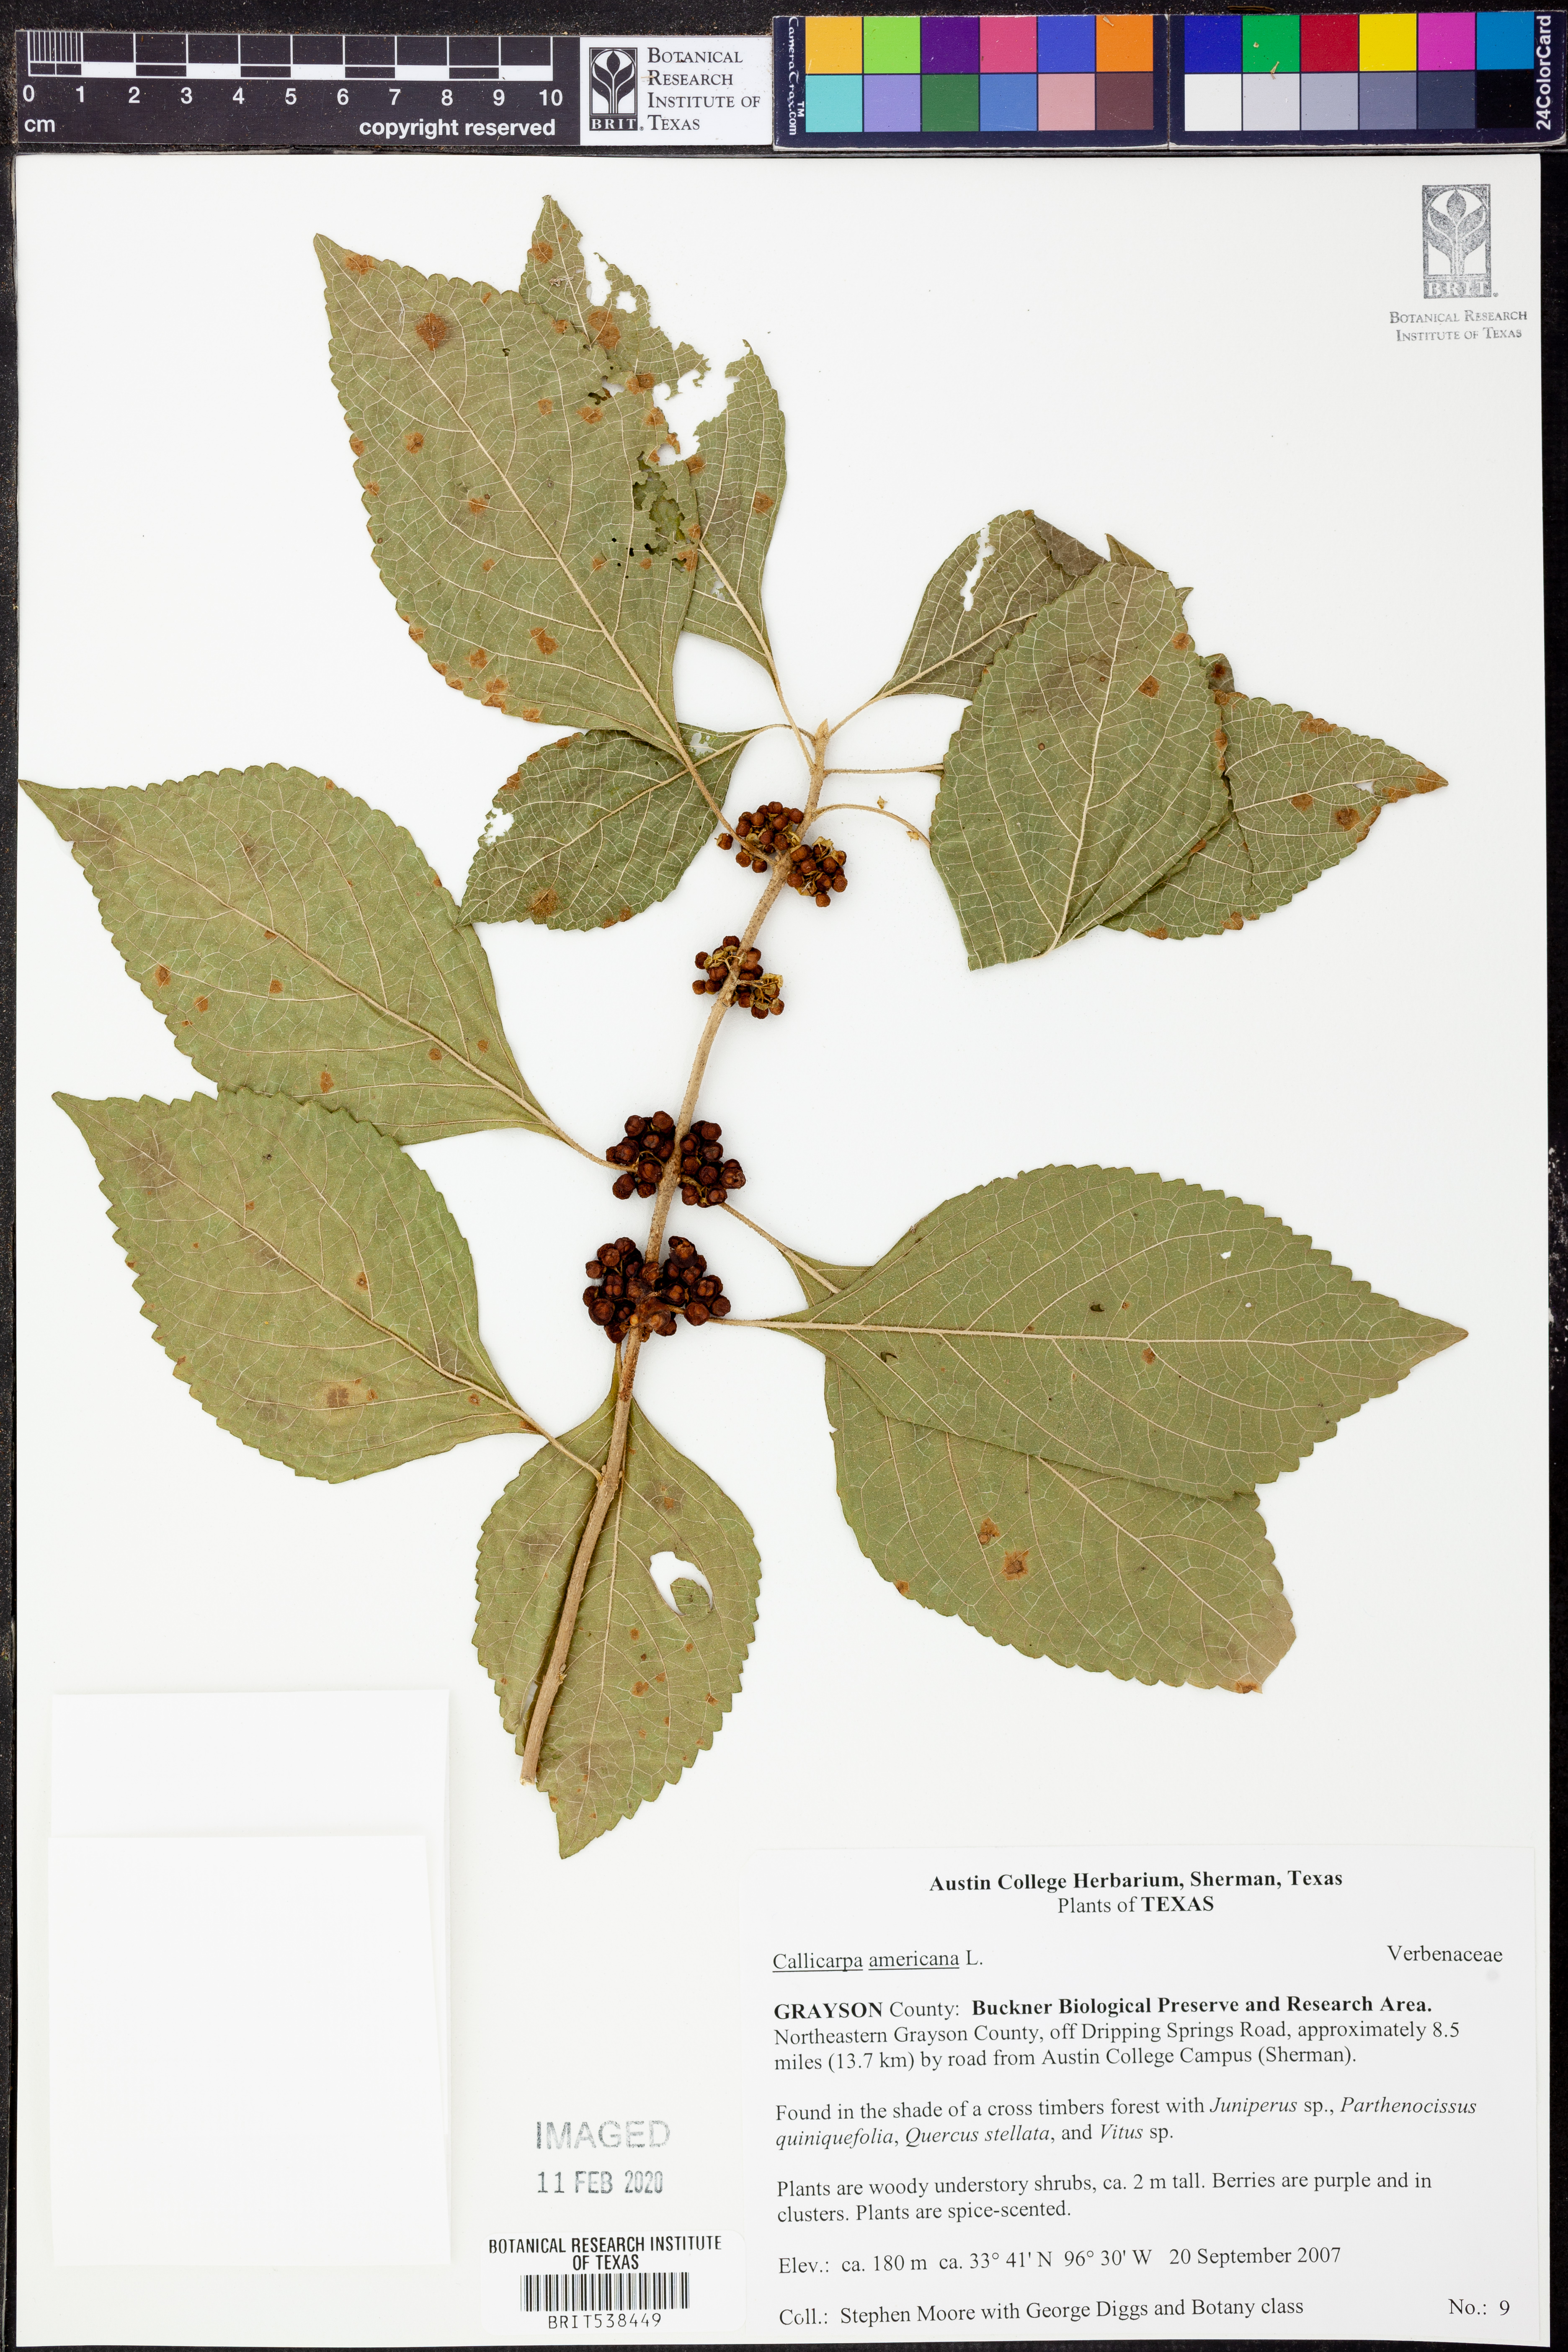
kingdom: Plantae
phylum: Tracheophyta
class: Magnoliopsida
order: Lamiales
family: Lamiaceae
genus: Callicarpa
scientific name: Callicarpa americana
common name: American beautyberry
